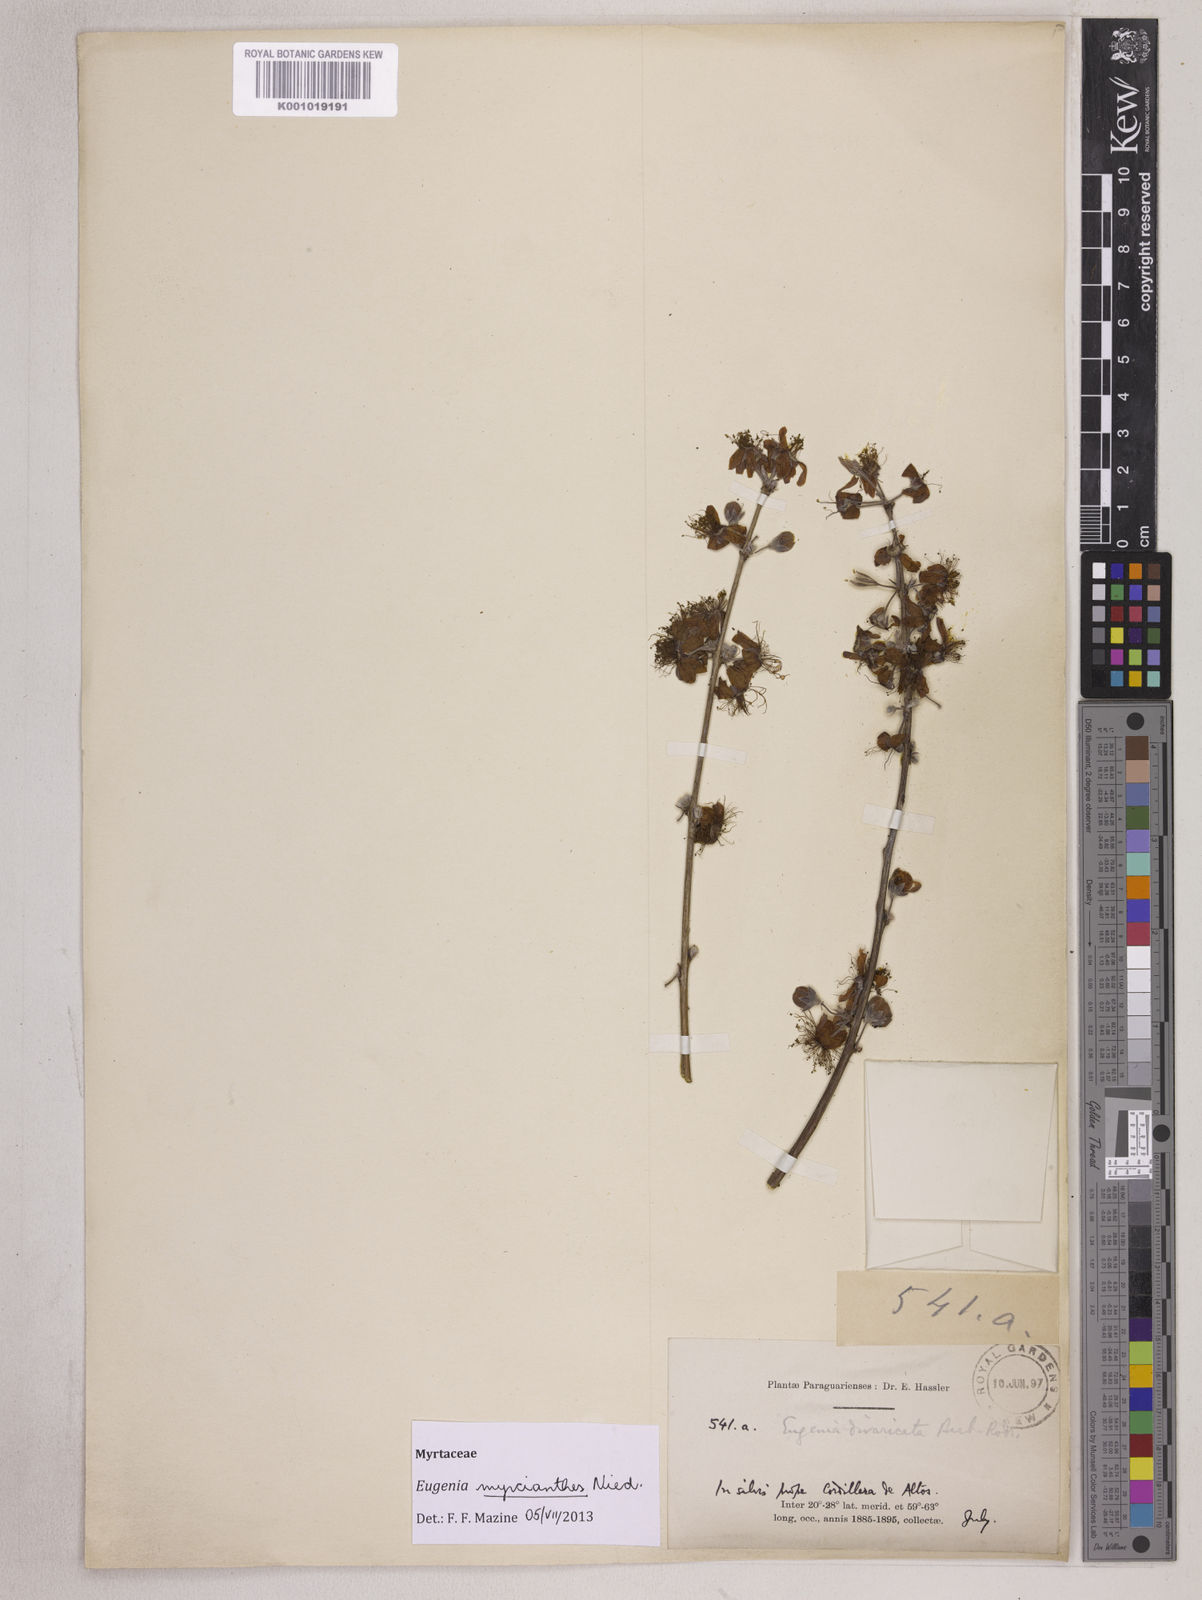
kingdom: Plantae
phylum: Tracheophyta
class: Magnoliopsida
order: Myrtales
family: Myrtaceae
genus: Eugenia
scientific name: Eugenia myrcianthes
